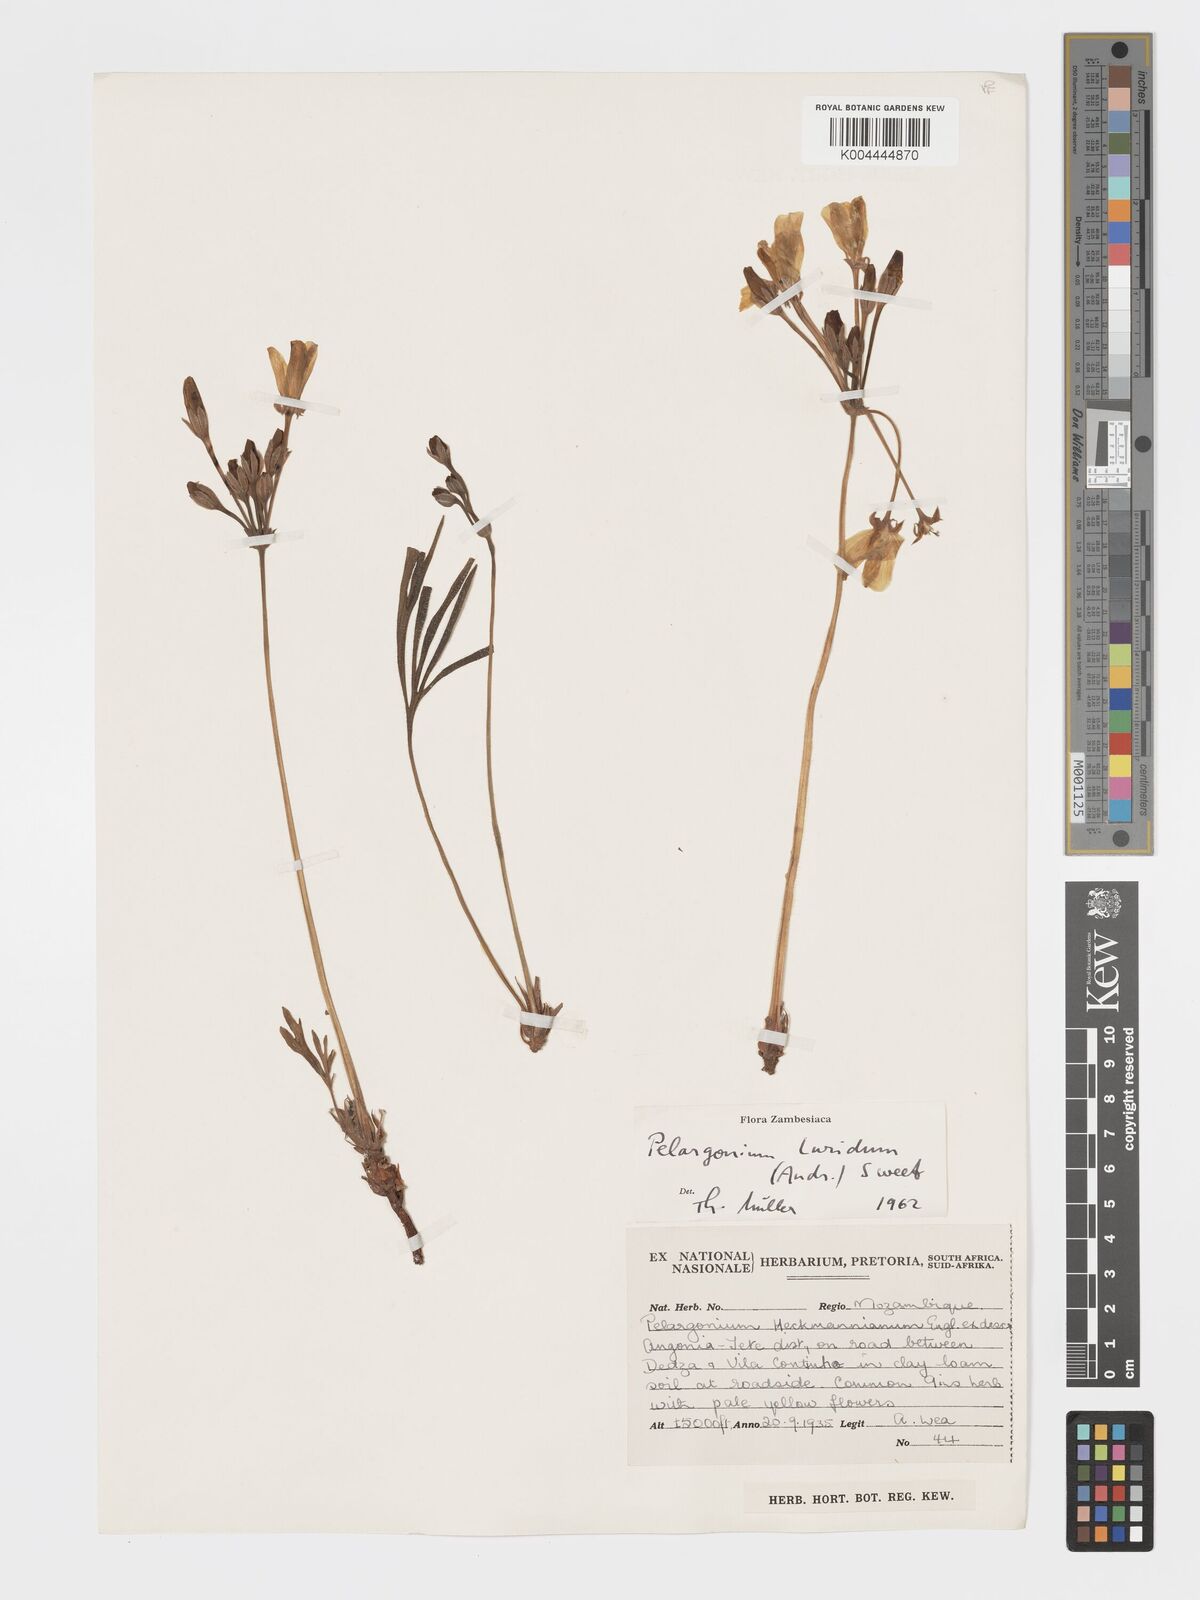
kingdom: Plantae
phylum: Tracheophyta
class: Magnoliopsida
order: Geraniales
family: Geraniaceae
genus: Pelargonium
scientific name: Pelargonium luridum
